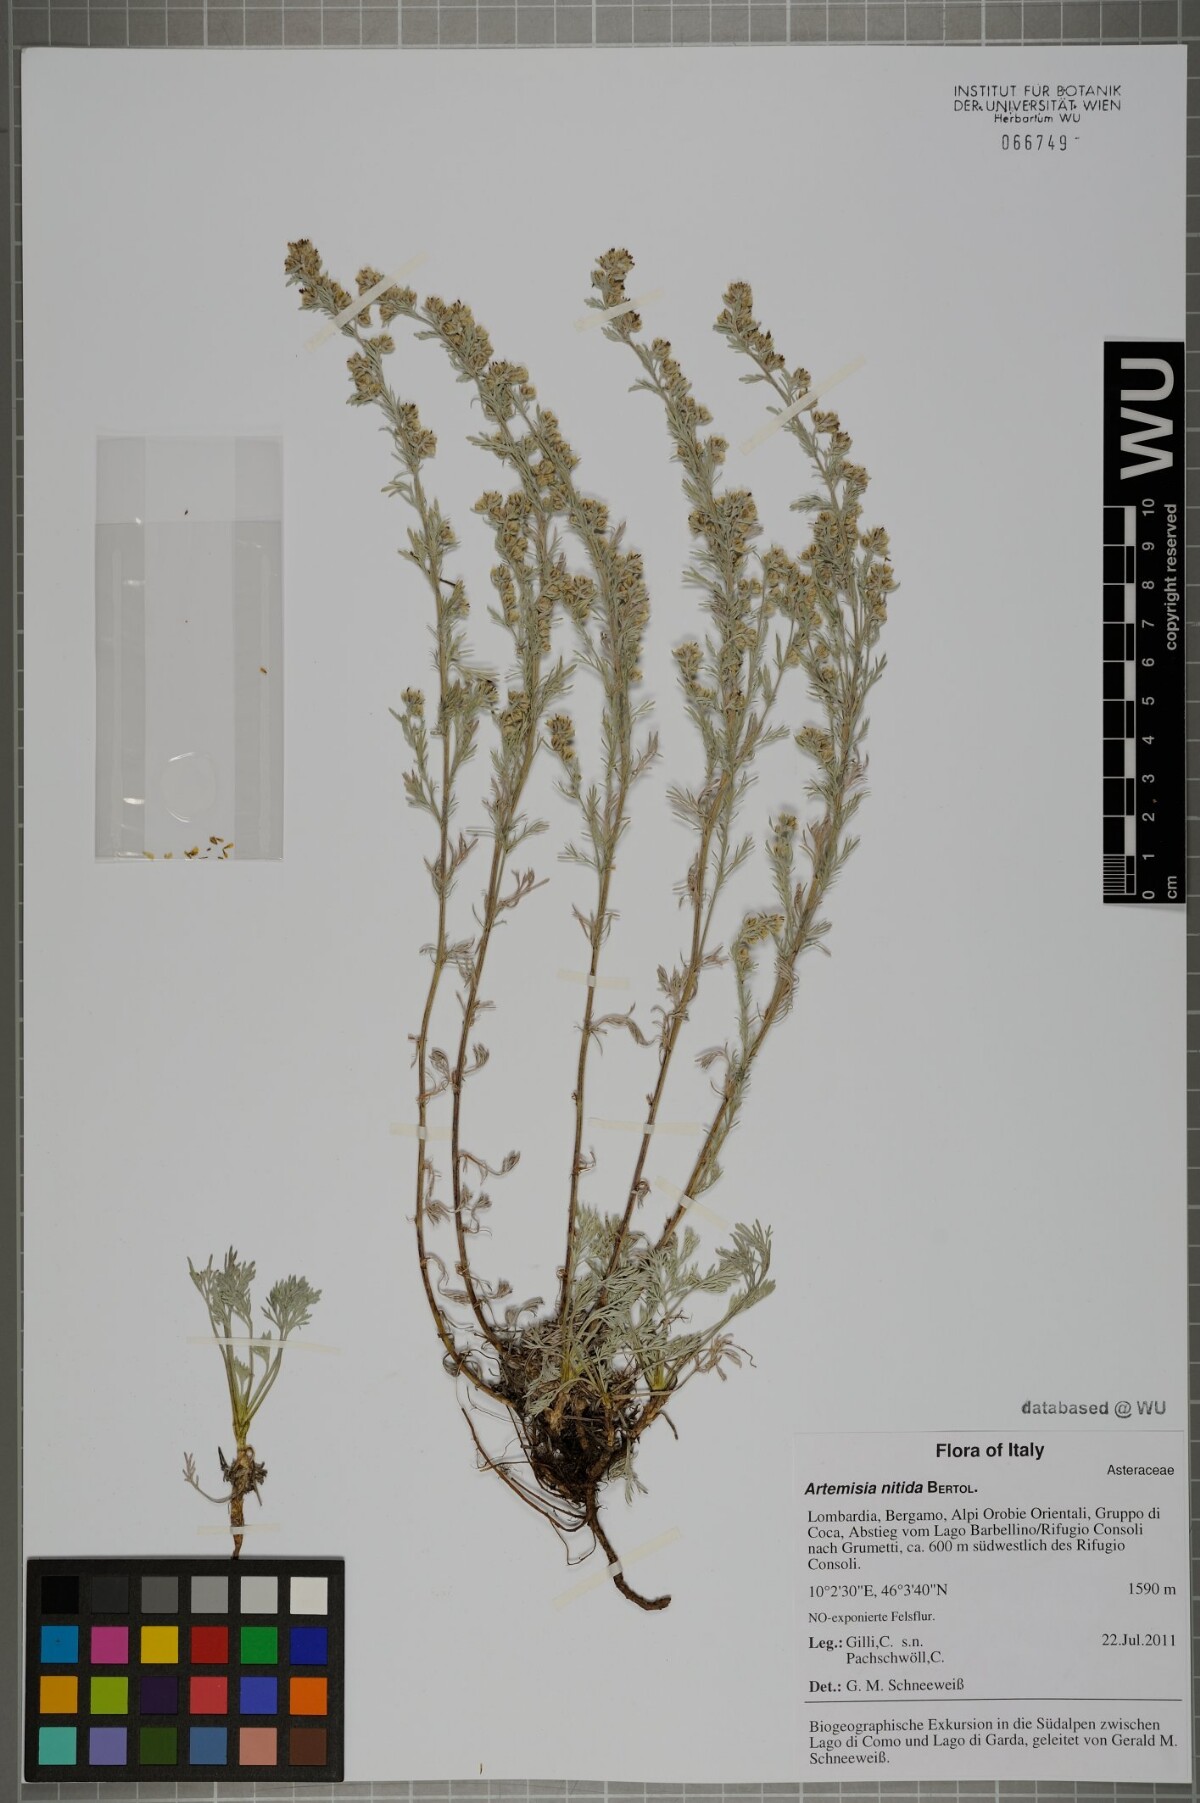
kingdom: Plantae
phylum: Tracheophyta
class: Magnoliopsida
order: Asterales
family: Asteraceae
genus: Artemisia
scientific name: Artemisia nitida
